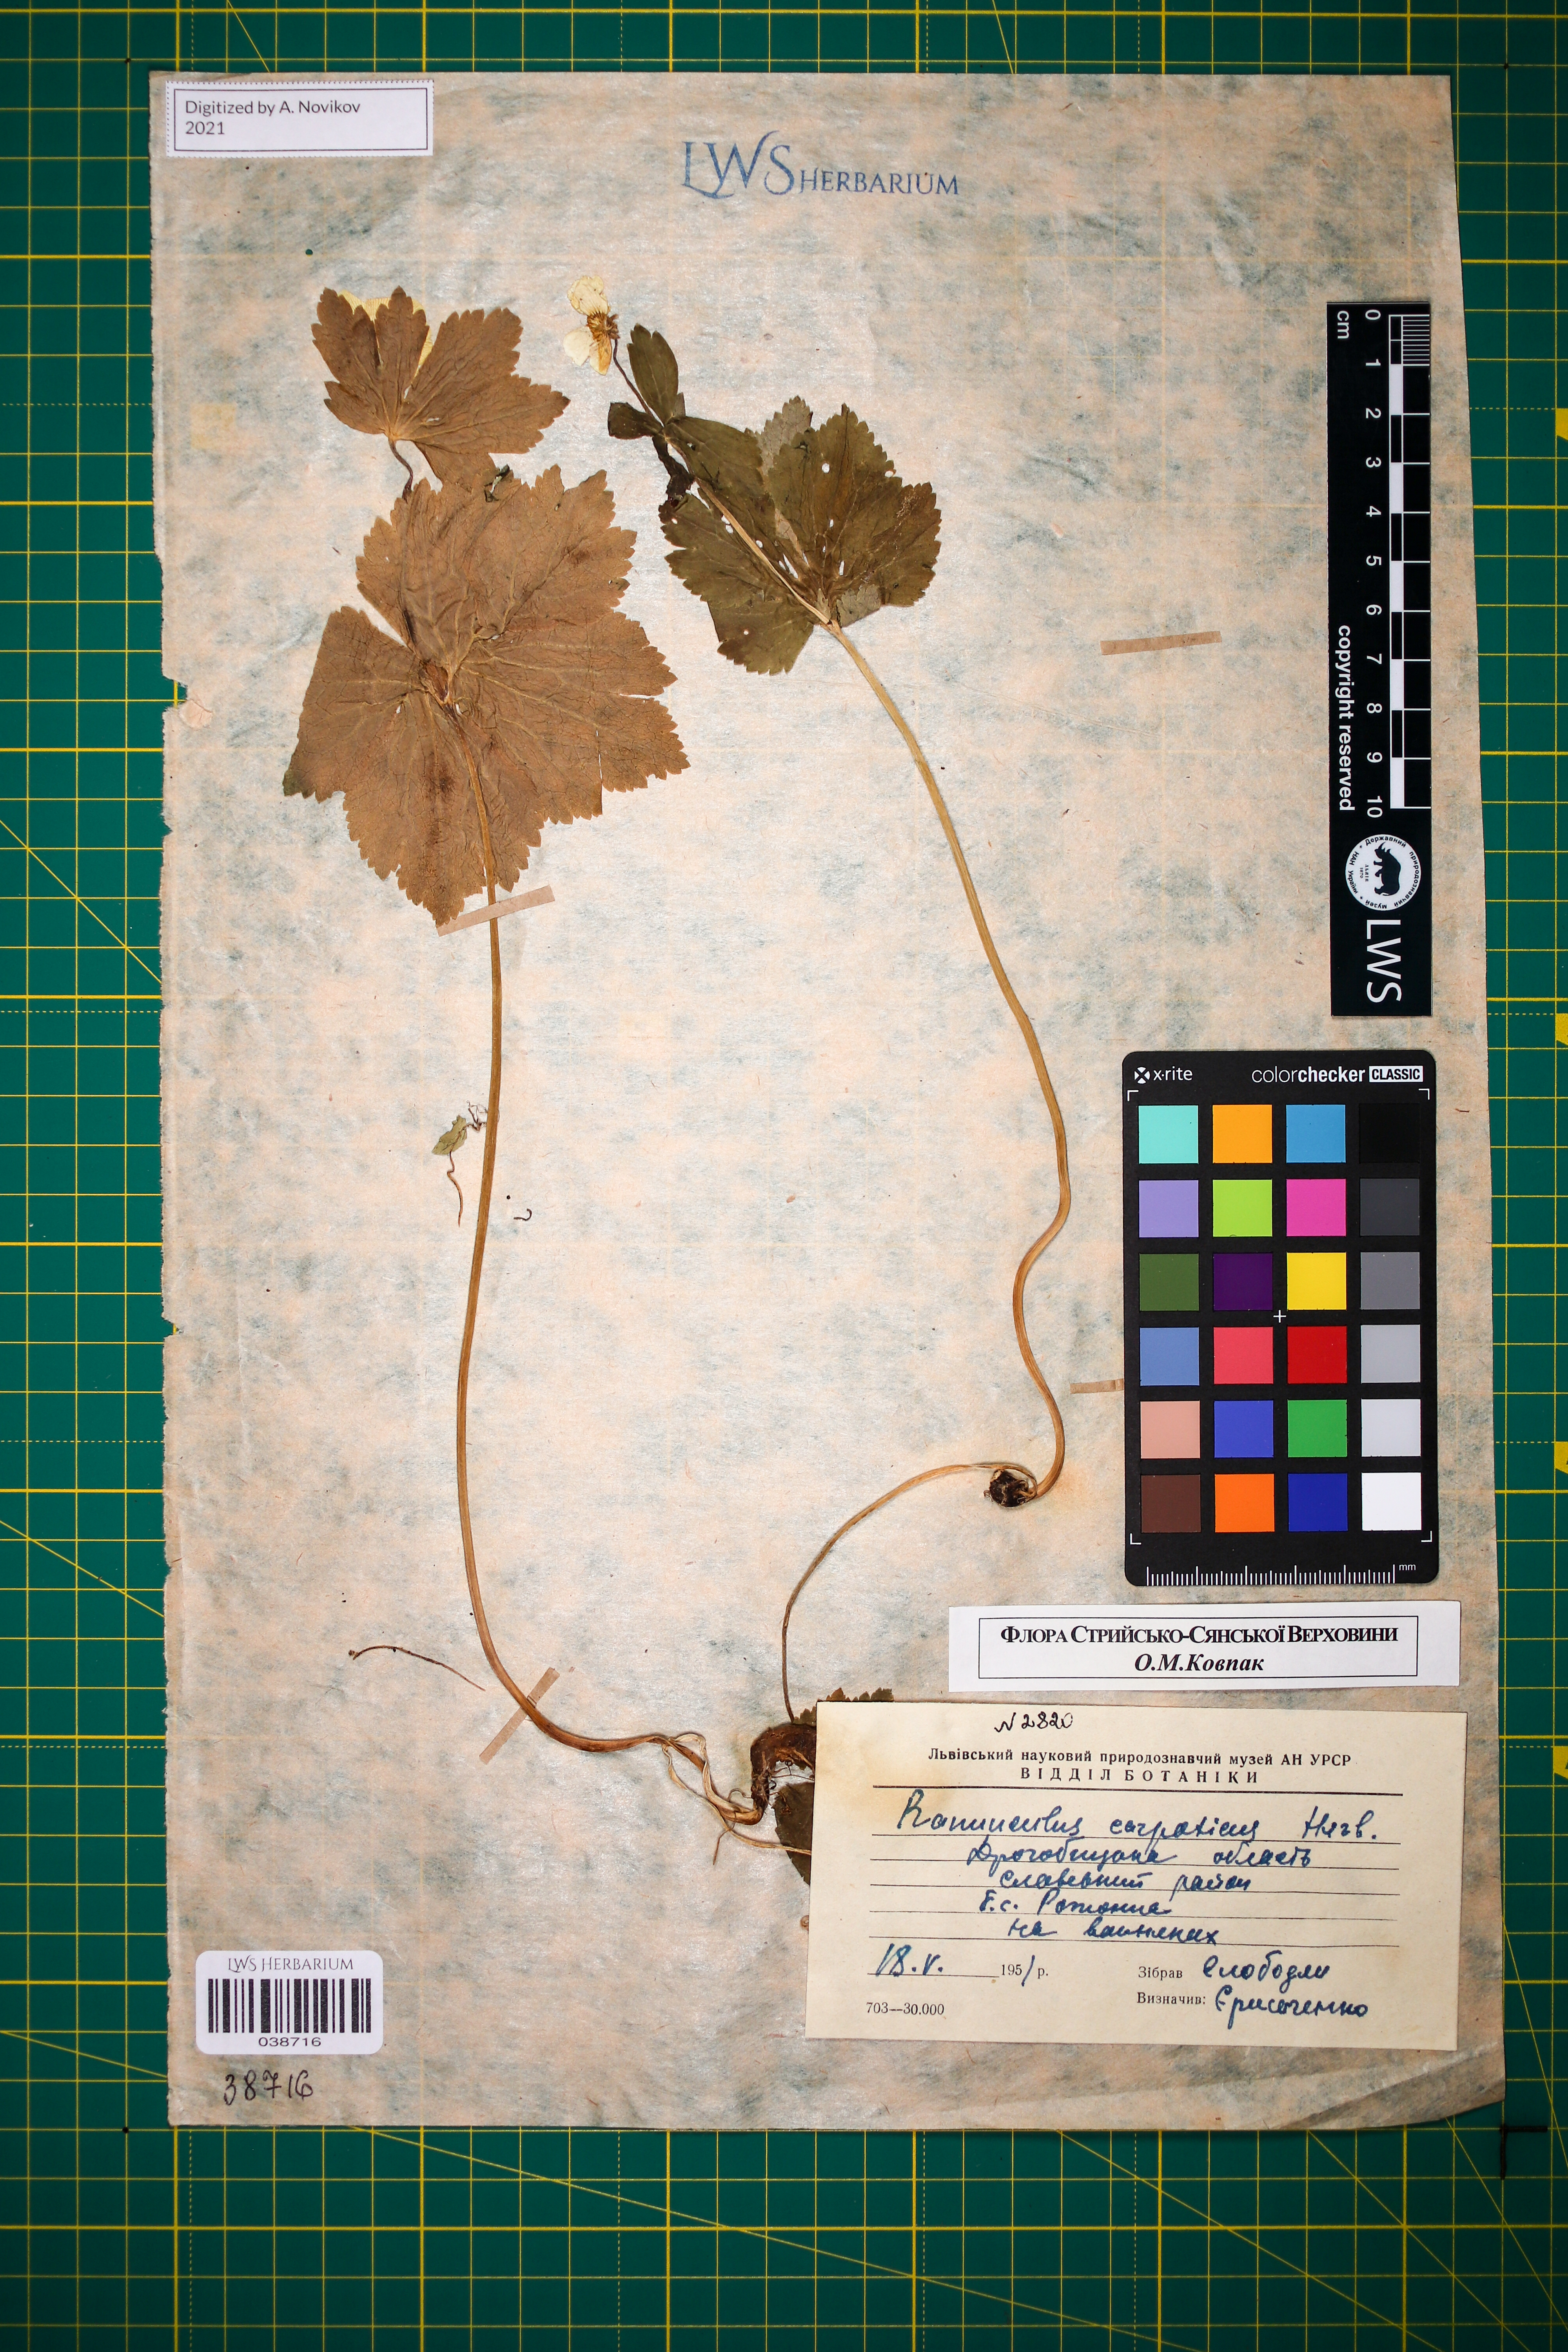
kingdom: Plantae
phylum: Tracheophyta
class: Magnoliopsida
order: Ranunculales
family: Ranunculaceae
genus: Ranunculus
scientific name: Ranunculus carpaticus
